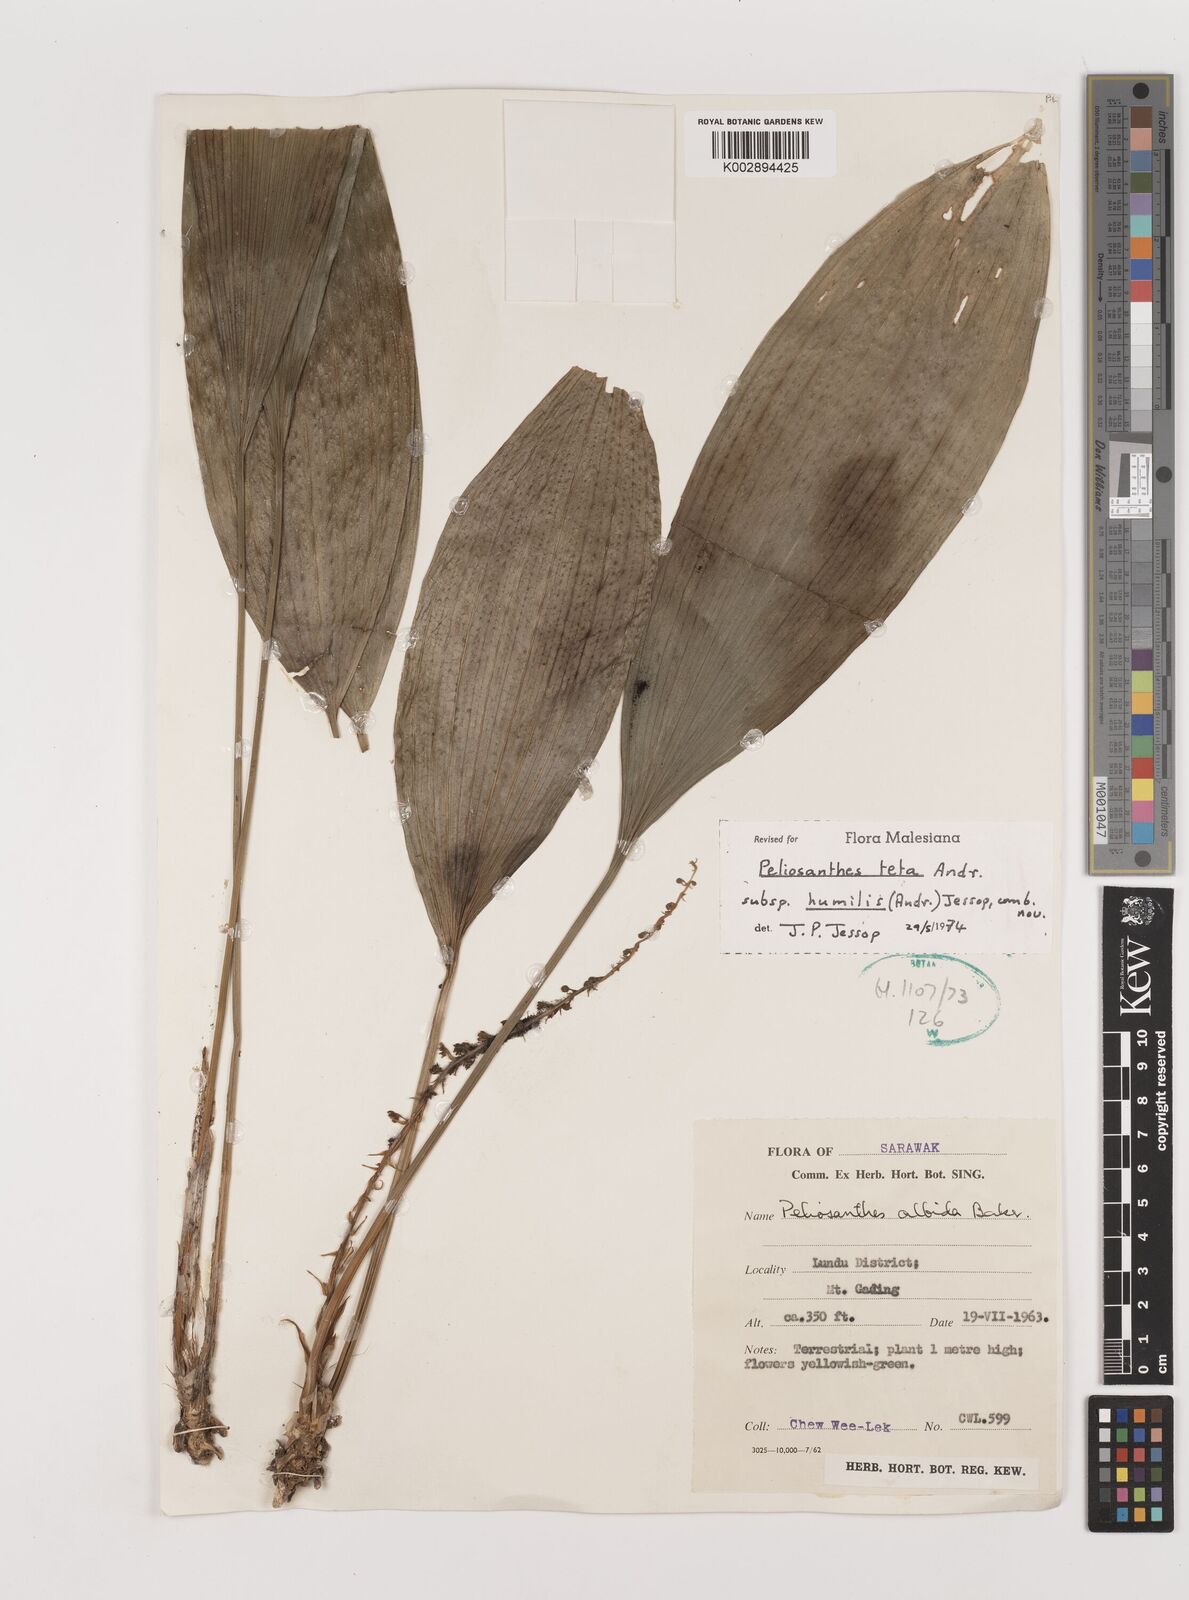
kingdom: Plantae
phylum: Tracheophyta
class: Liliopsida
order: Asparagales
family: Asparagaceae
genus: Peliosanthes
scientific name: Peliosanthes teta
